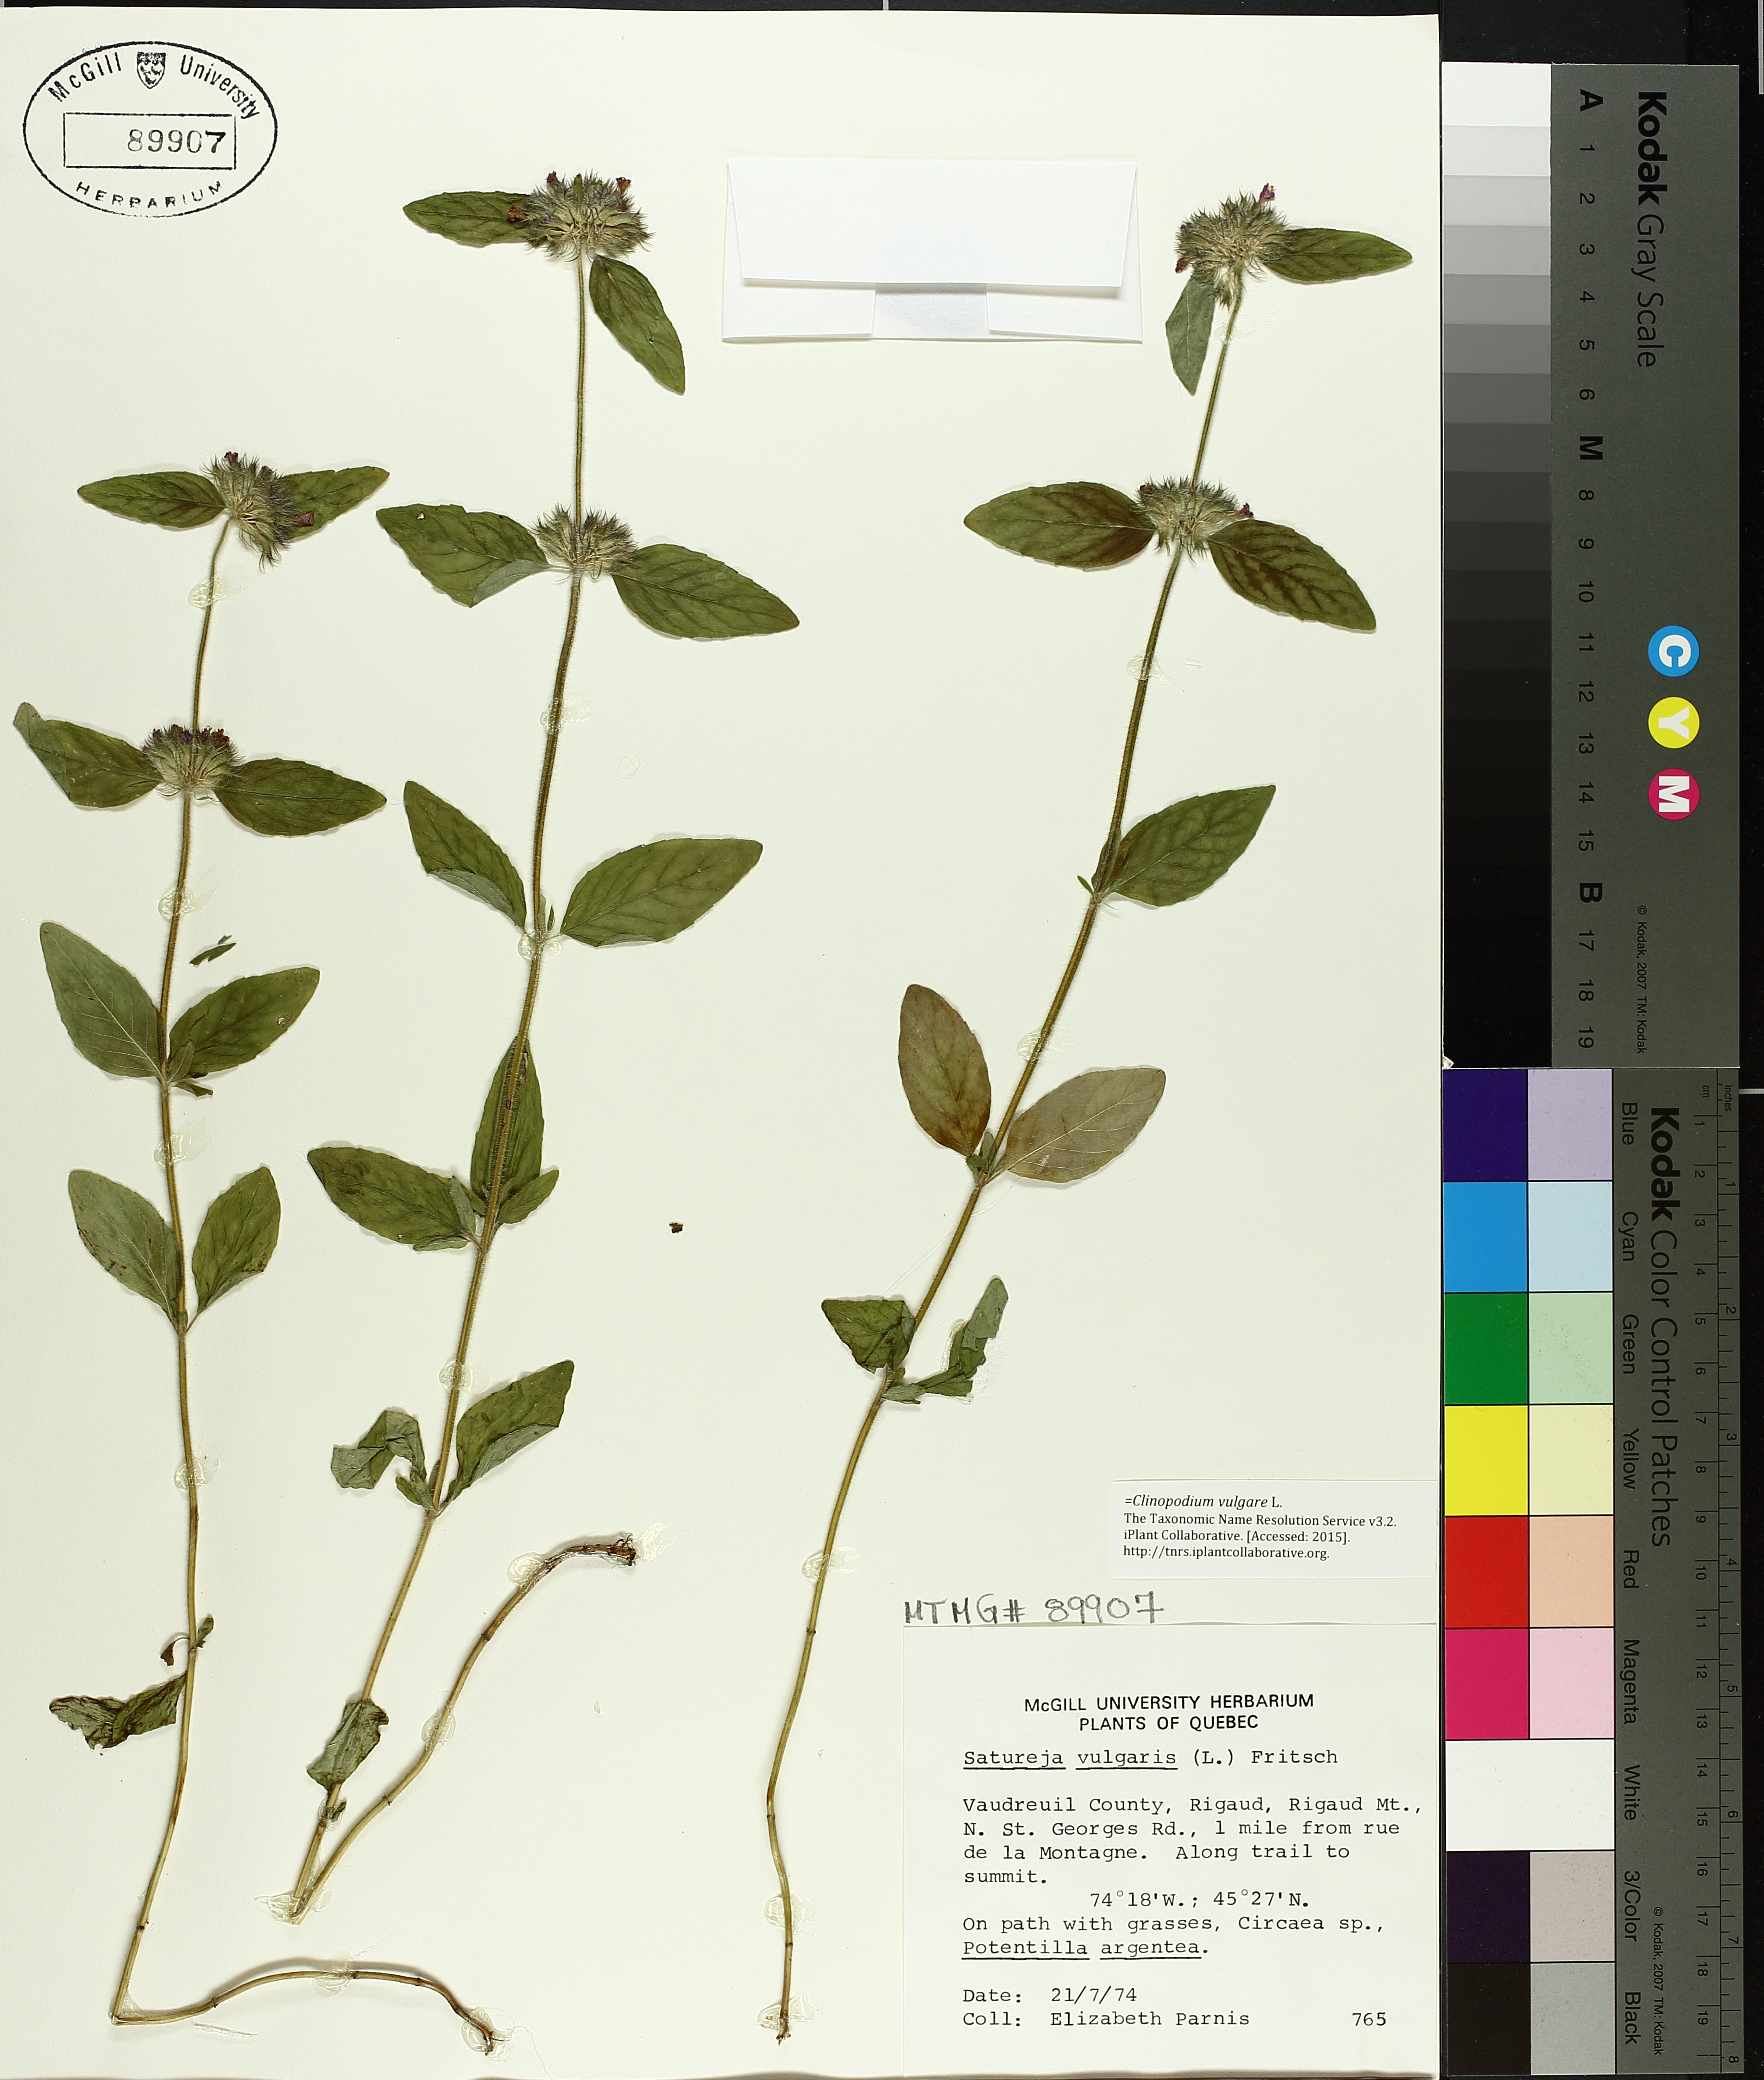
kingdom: Plantae
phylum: Tracheophyta
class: Magnoliopsida
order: Lamiales
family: Lamiaceae
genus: Clinopodium
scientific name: Clinopodium vulgare
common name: Wild basil
